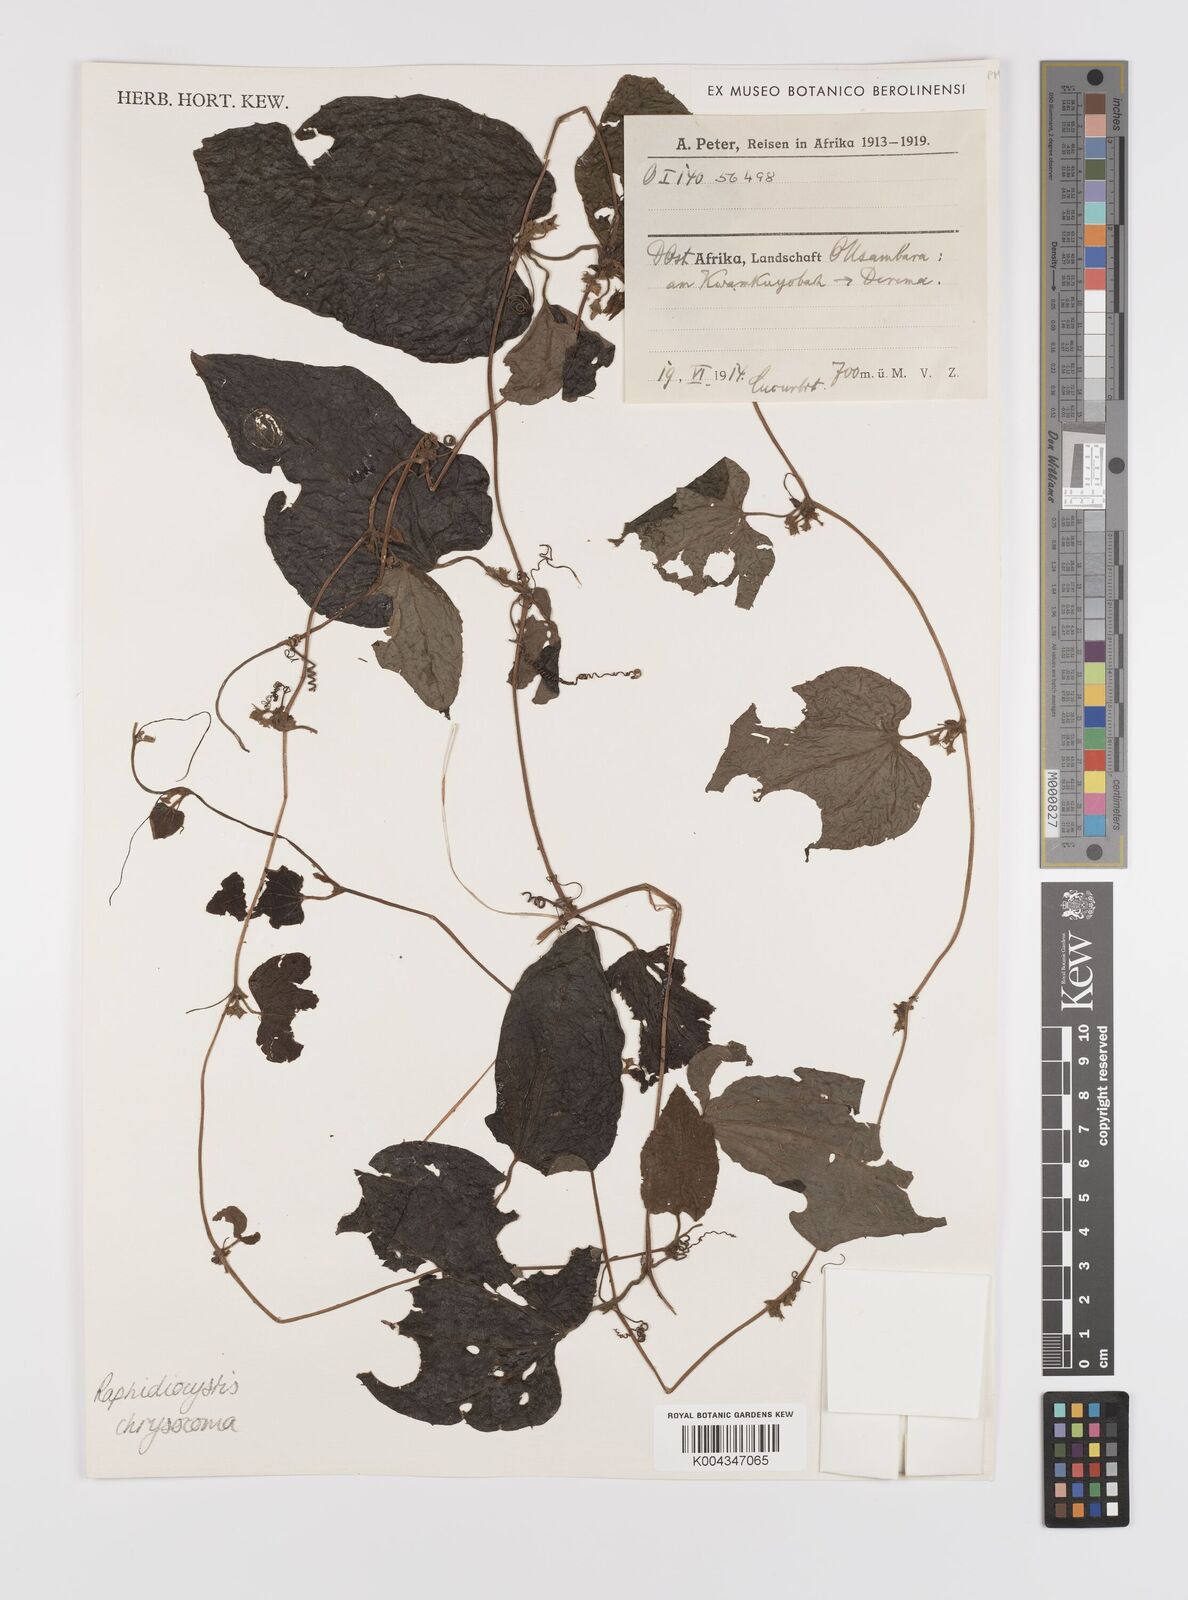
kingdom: Plantae
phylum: Tracheophyta
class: Magnoliopsida
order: Cucurbitales
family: Cucurbitaceae
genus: Raphidiocystis
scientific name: Raphidiocystis chrysocoma
